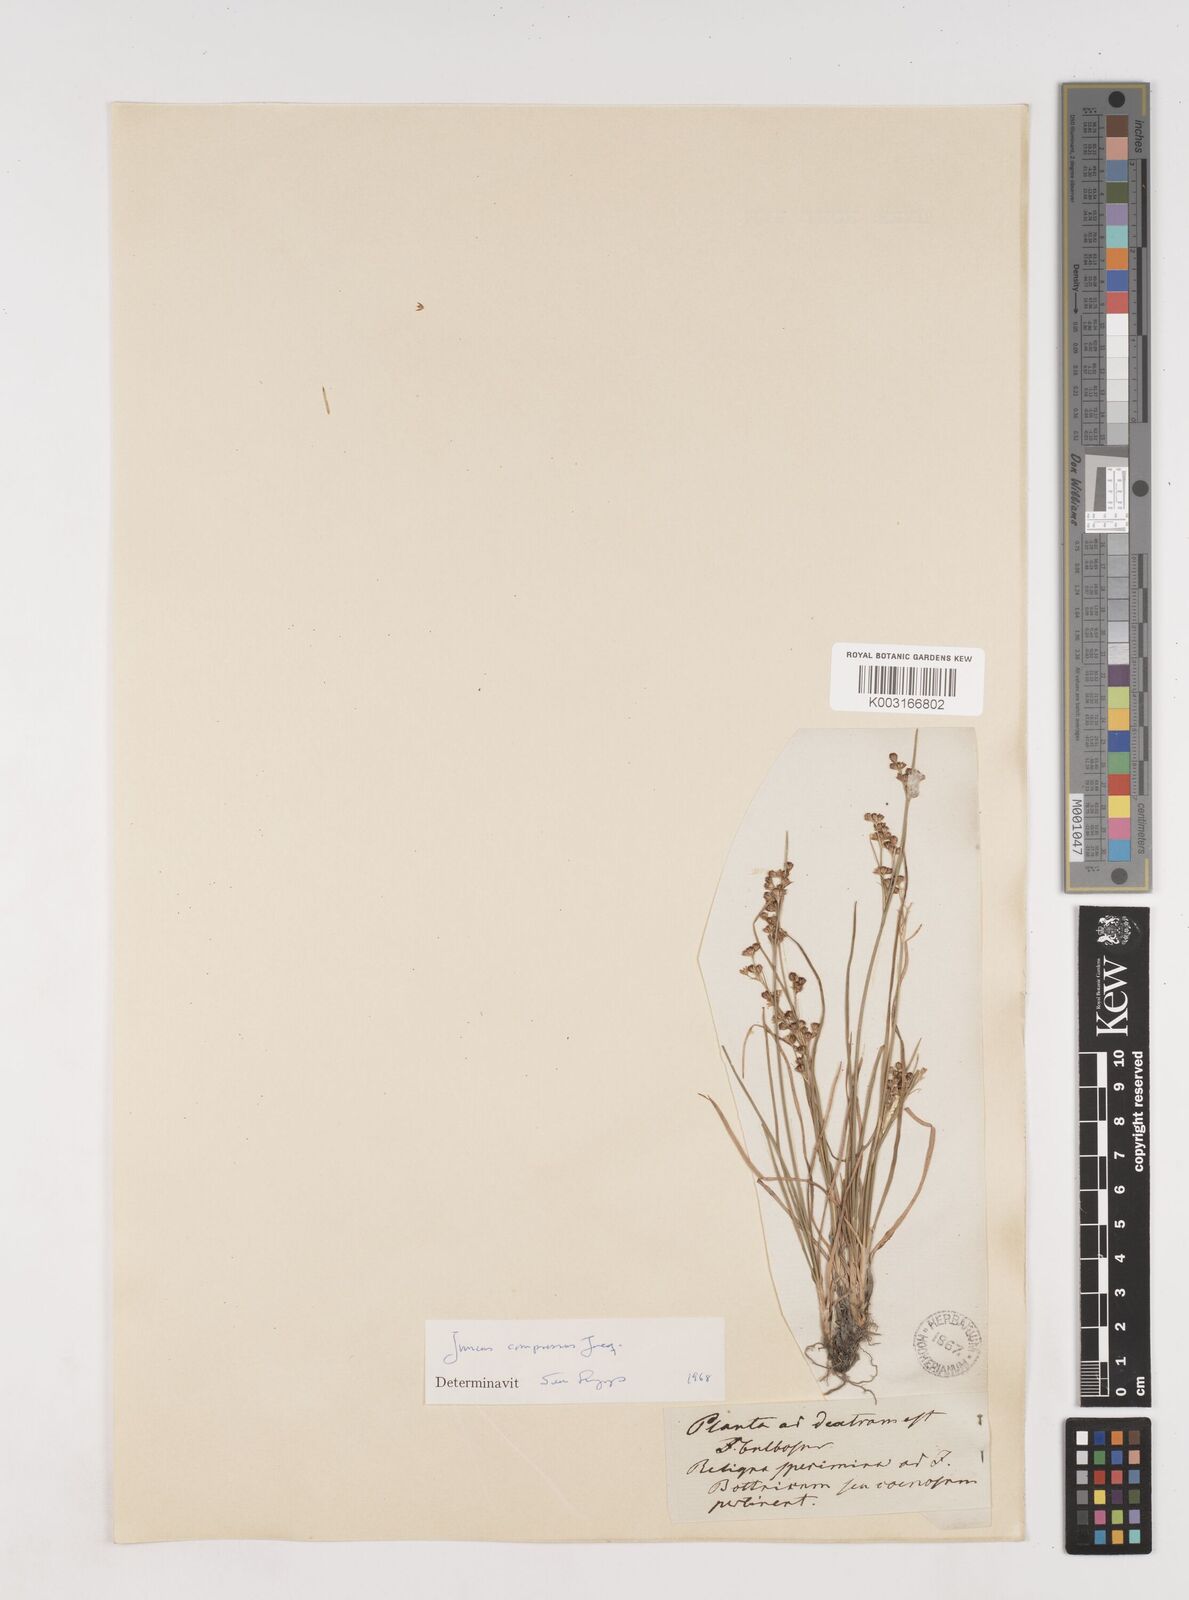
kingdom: Plantae
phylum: Tracheophyta
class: Liliopsida
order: Poales
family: Juncaceae
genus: Juncus
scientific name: Juncus compressus
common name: Round-fruited rush
